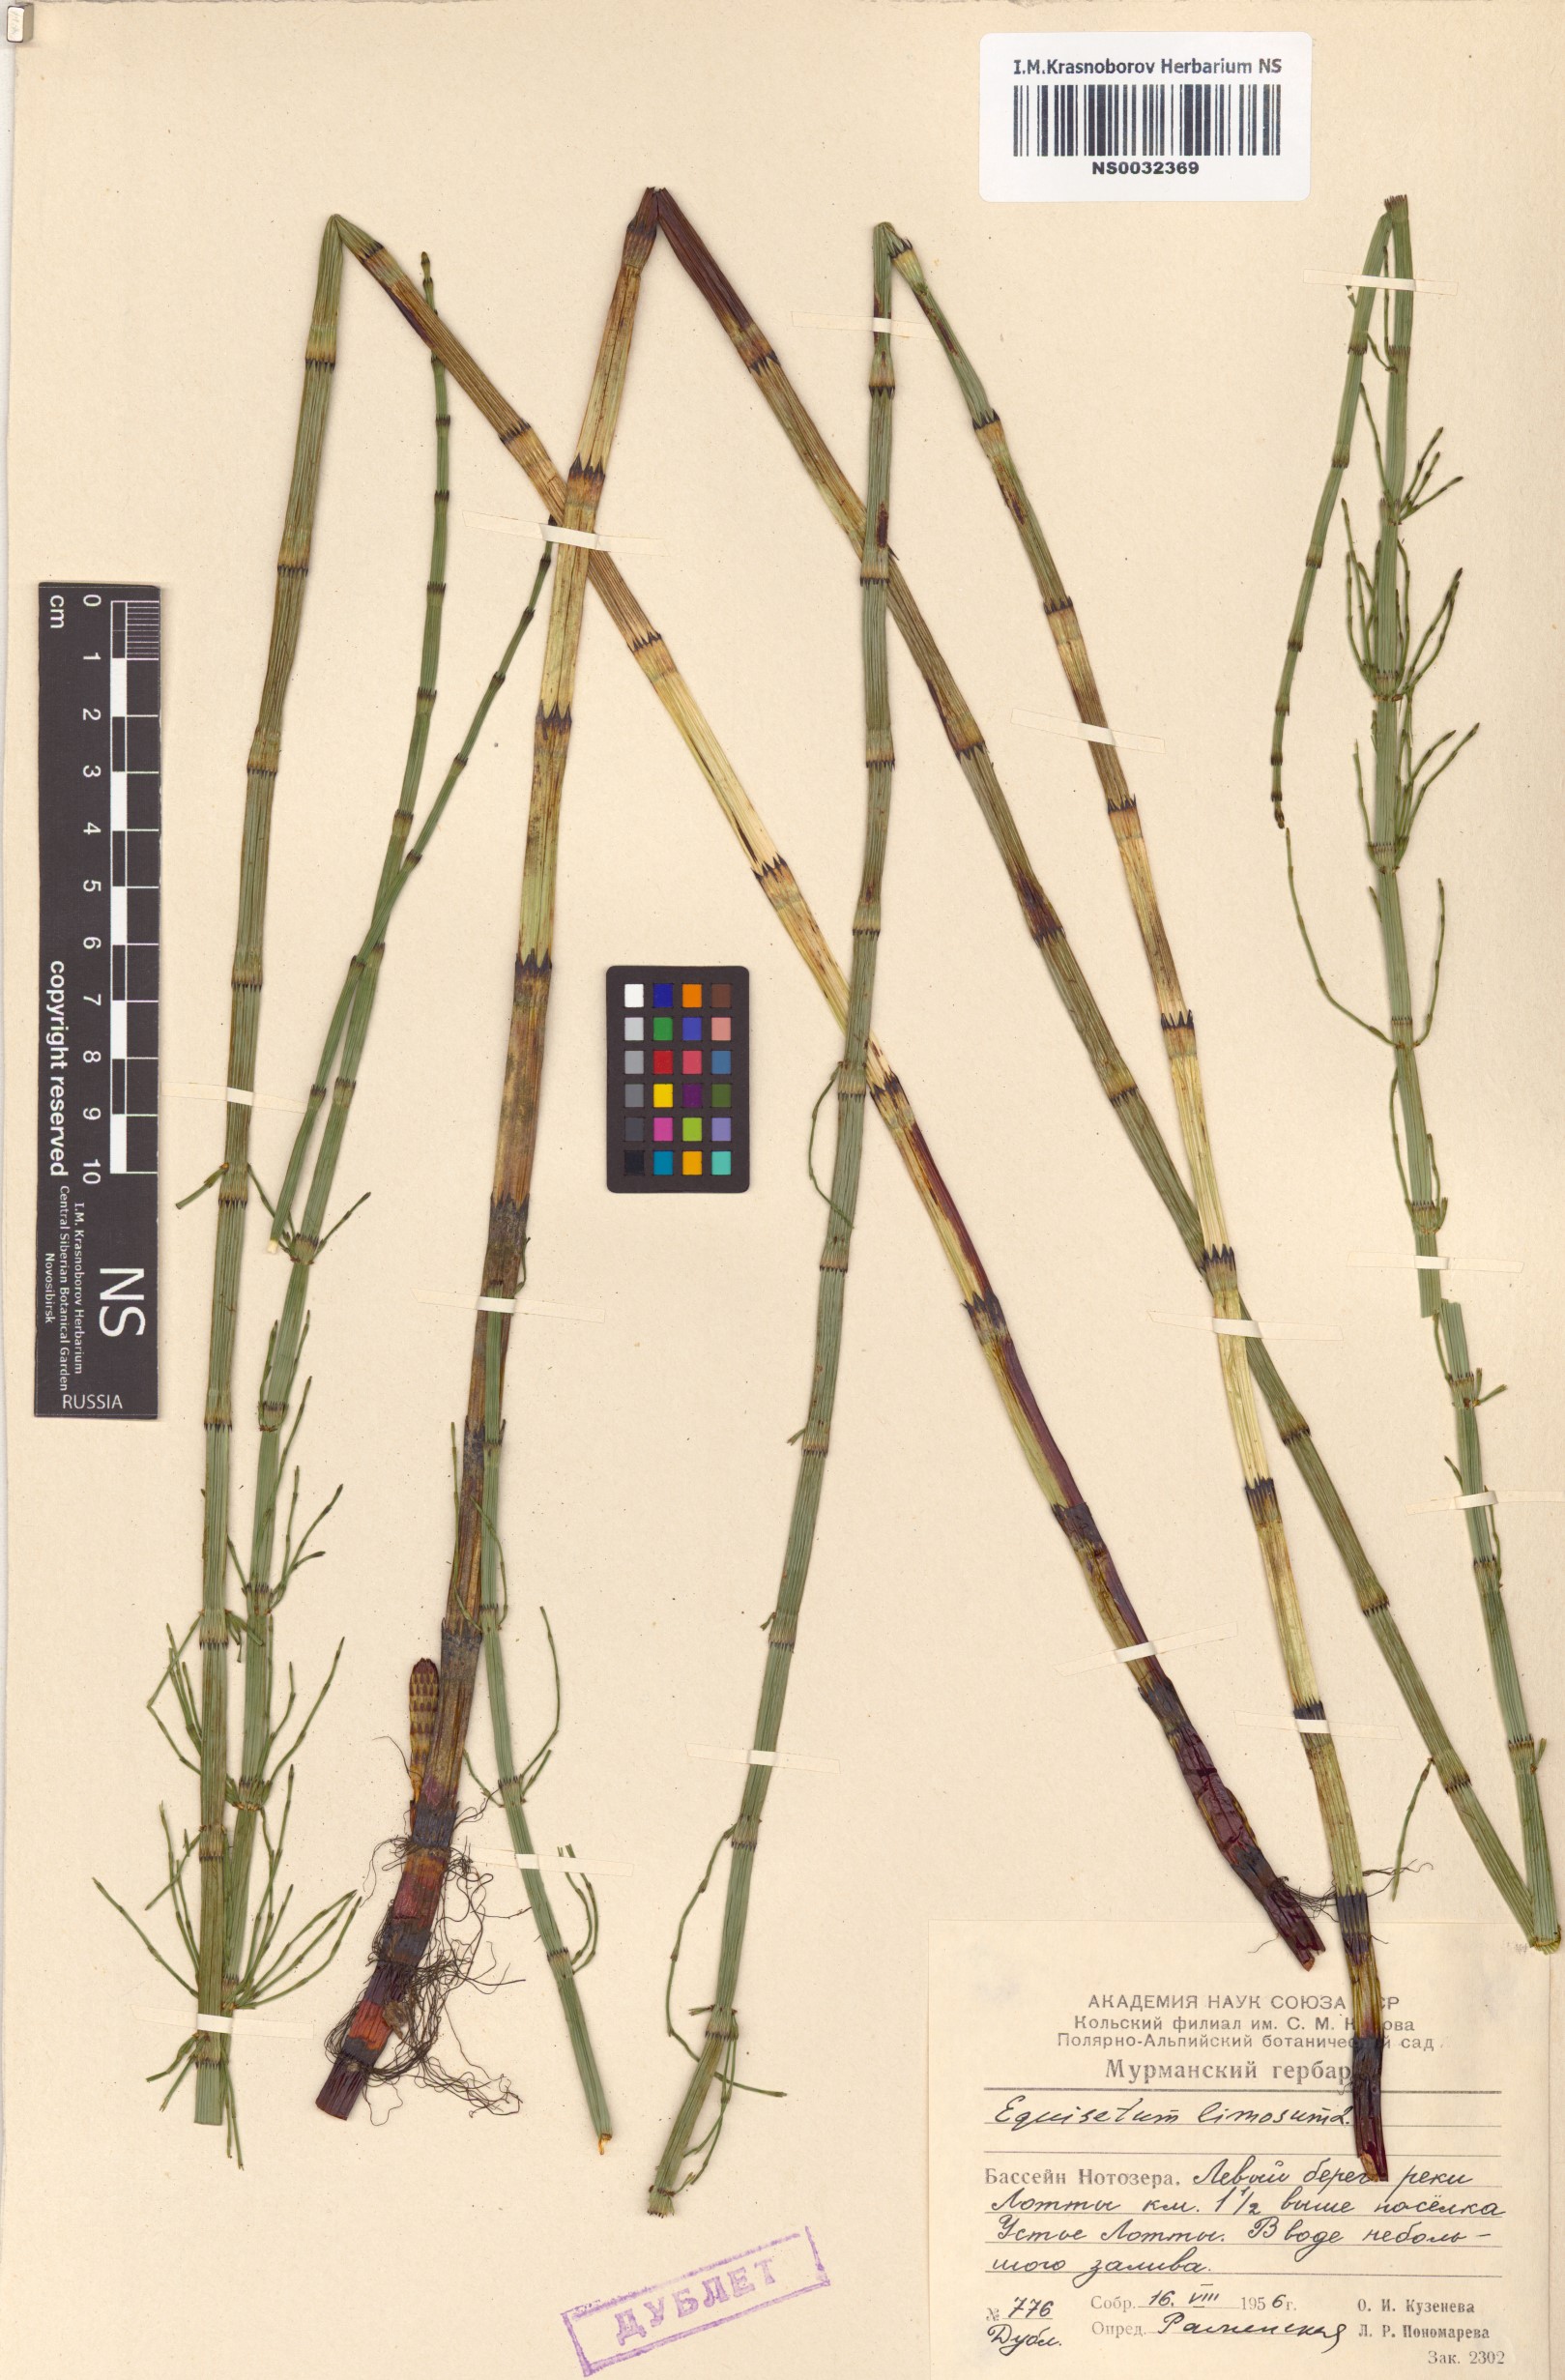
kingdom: Plantae
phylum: Tracheophyta
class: Polypodiopsida
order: Equisetales
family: Equisetaceae
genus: Equisetum
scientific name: Equisetum fluviatile
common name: Water horsetail
